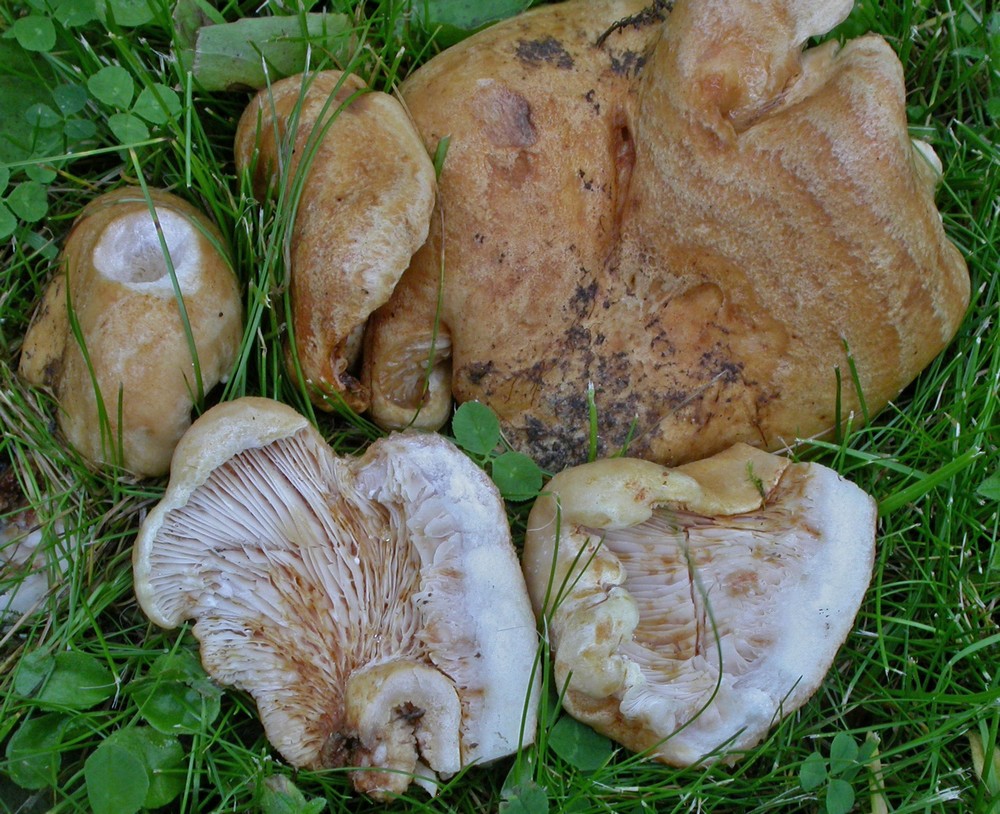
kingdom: Fungi
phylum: Basidiomycota
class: Agaricomycetes
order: Russulales
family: Russulaceae
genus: Lactarius
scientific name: Lactarius acerrimus
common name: brændende mælkehat
